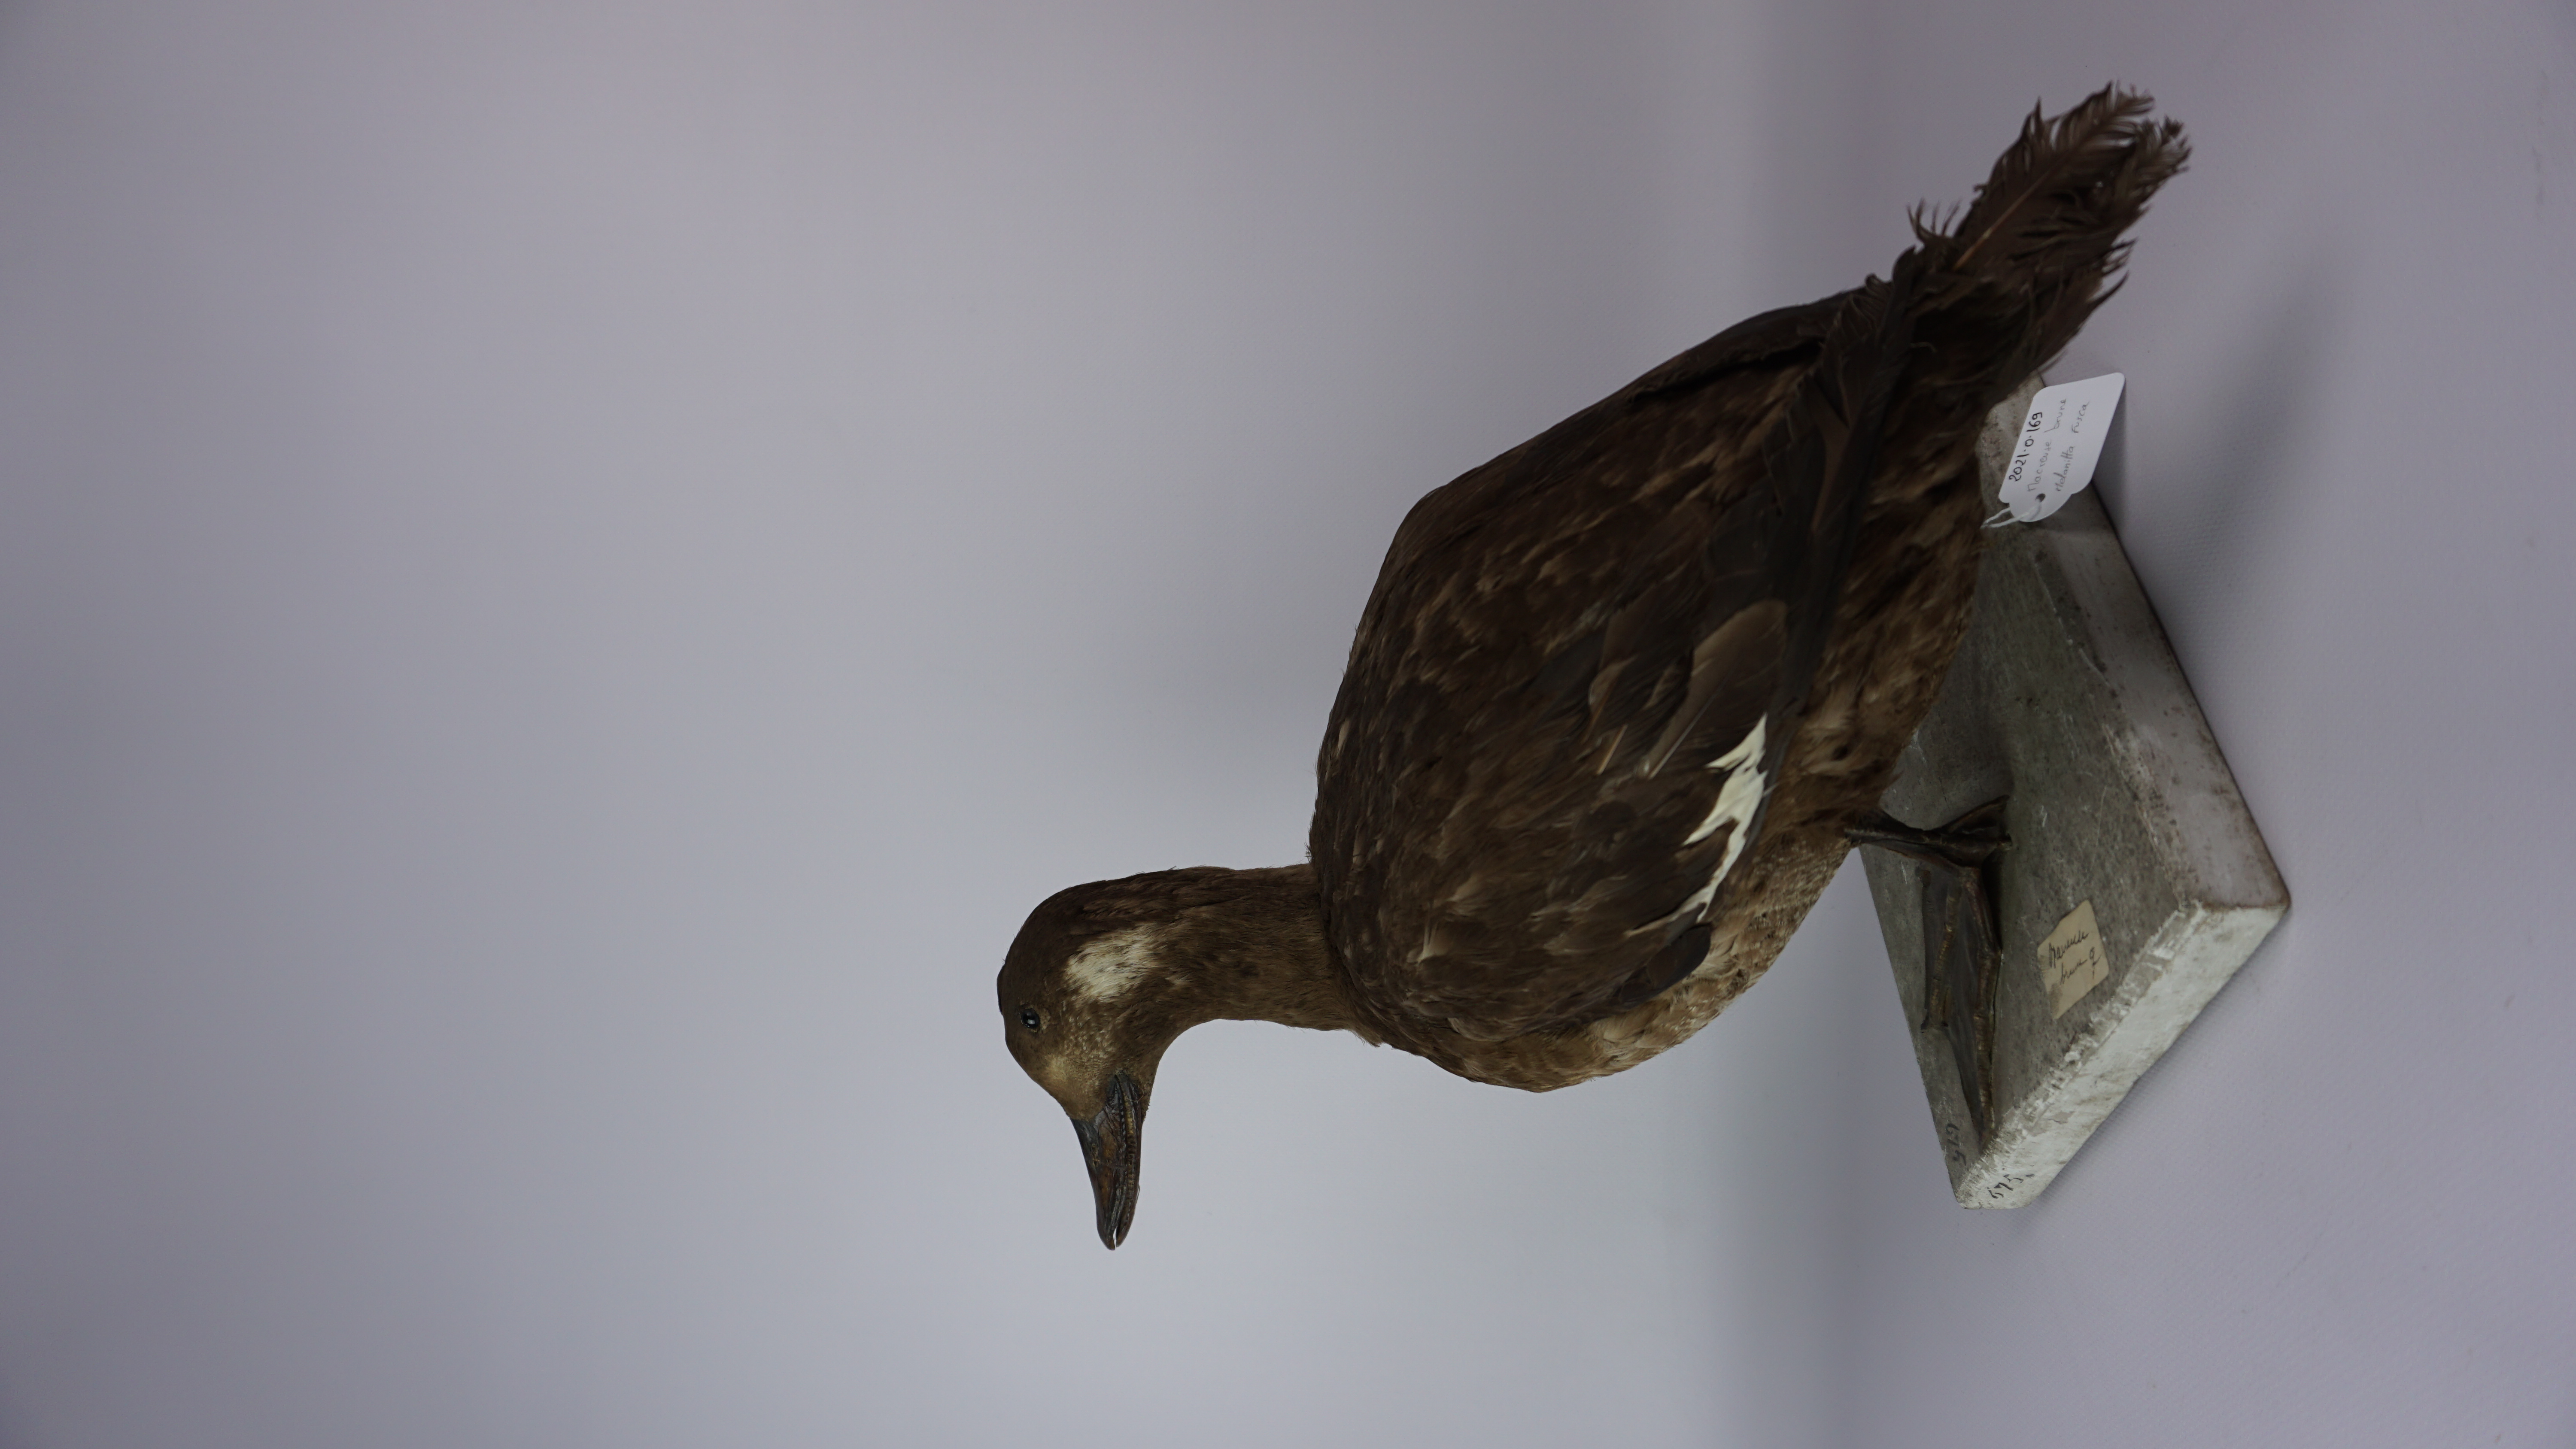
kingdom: Animalia
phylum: Chordata
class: Aves
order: Anseriformes
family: Anatidae
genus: Melanitta
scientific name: Melanitta fusca
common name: Velvet scoter
